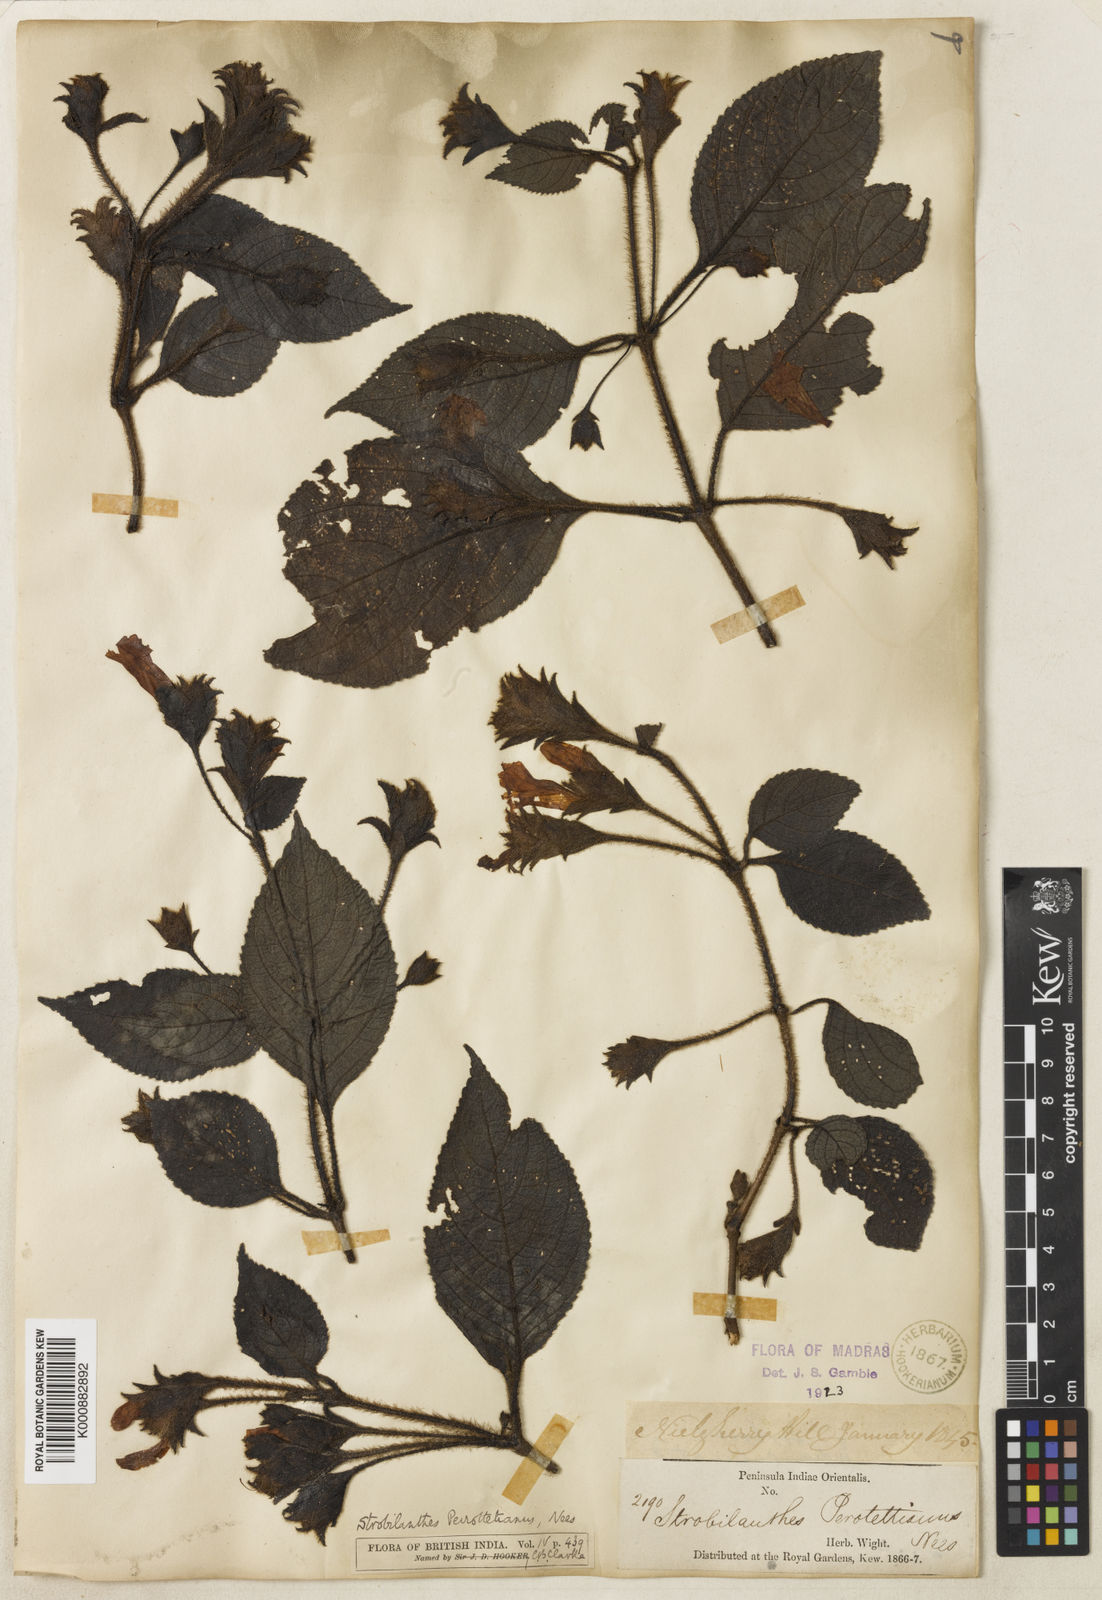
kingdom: Plantae
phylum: Tracheophyta
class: Magnoliopsida
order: Lamiales
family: Acanthaceae
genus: Strobilanthes
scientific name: Strobilanthes perrottetiana
